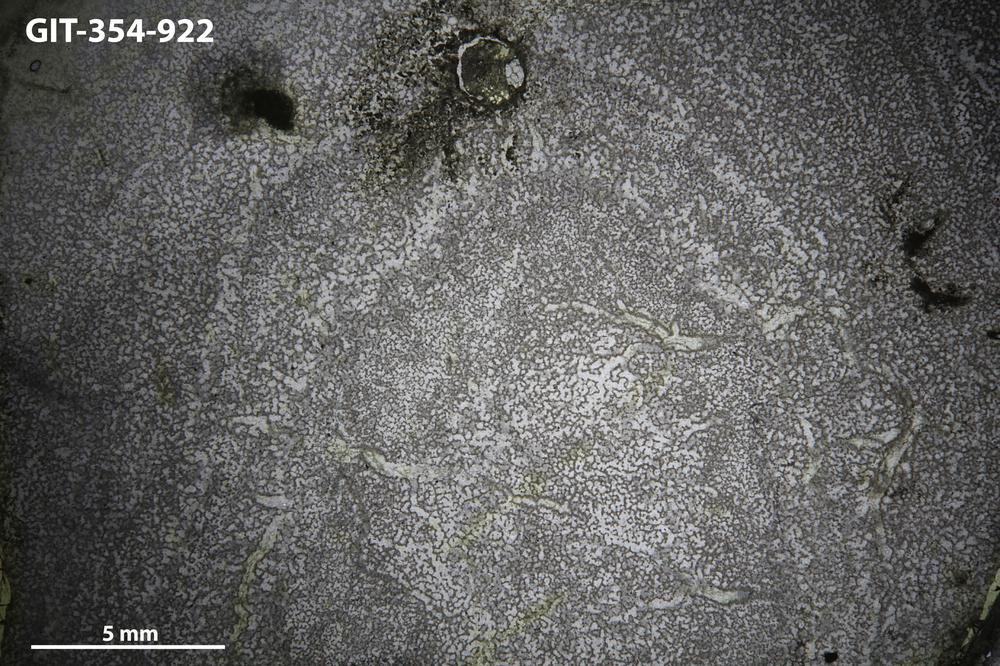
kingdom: Animalia
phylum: Porifera
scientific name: Porifera
